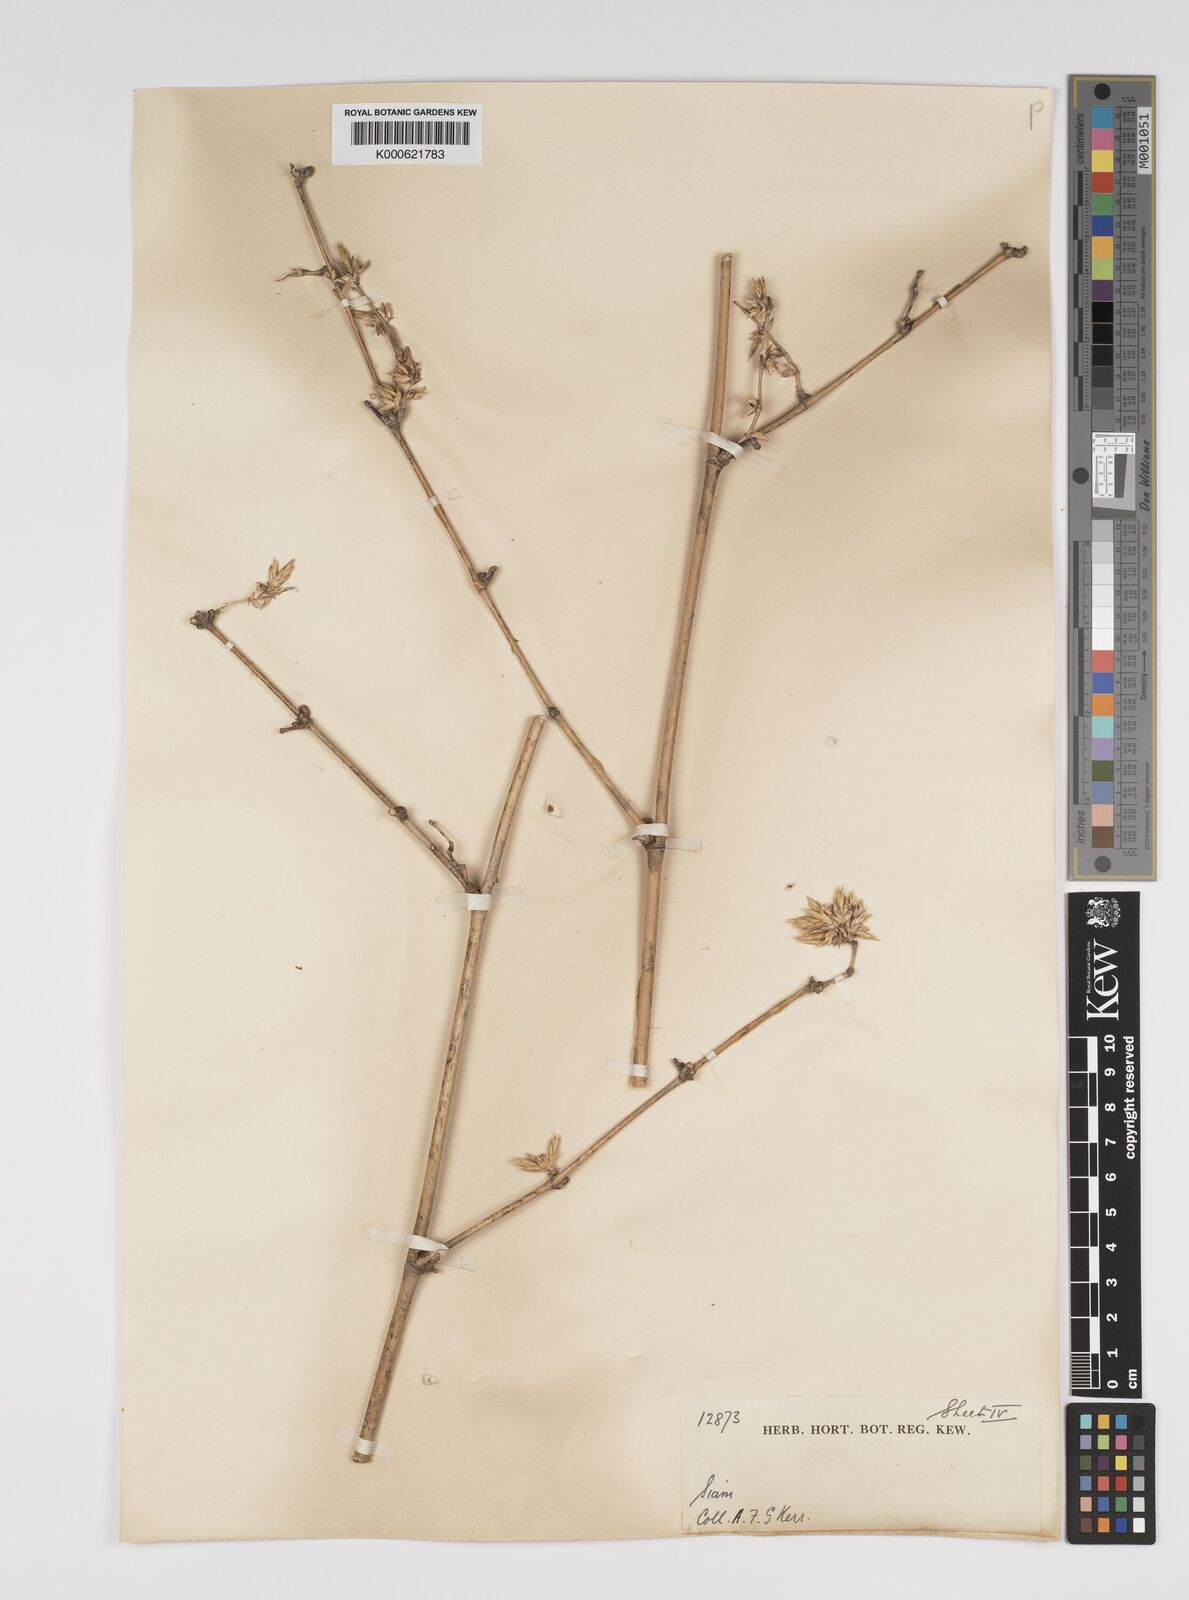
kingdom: Plantae
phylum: Tracheophyta
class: Liliopsida
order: Poales
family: Poaceae
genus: Bambusa
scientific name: Bambusa bambos
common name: Indian thorny bamboo
